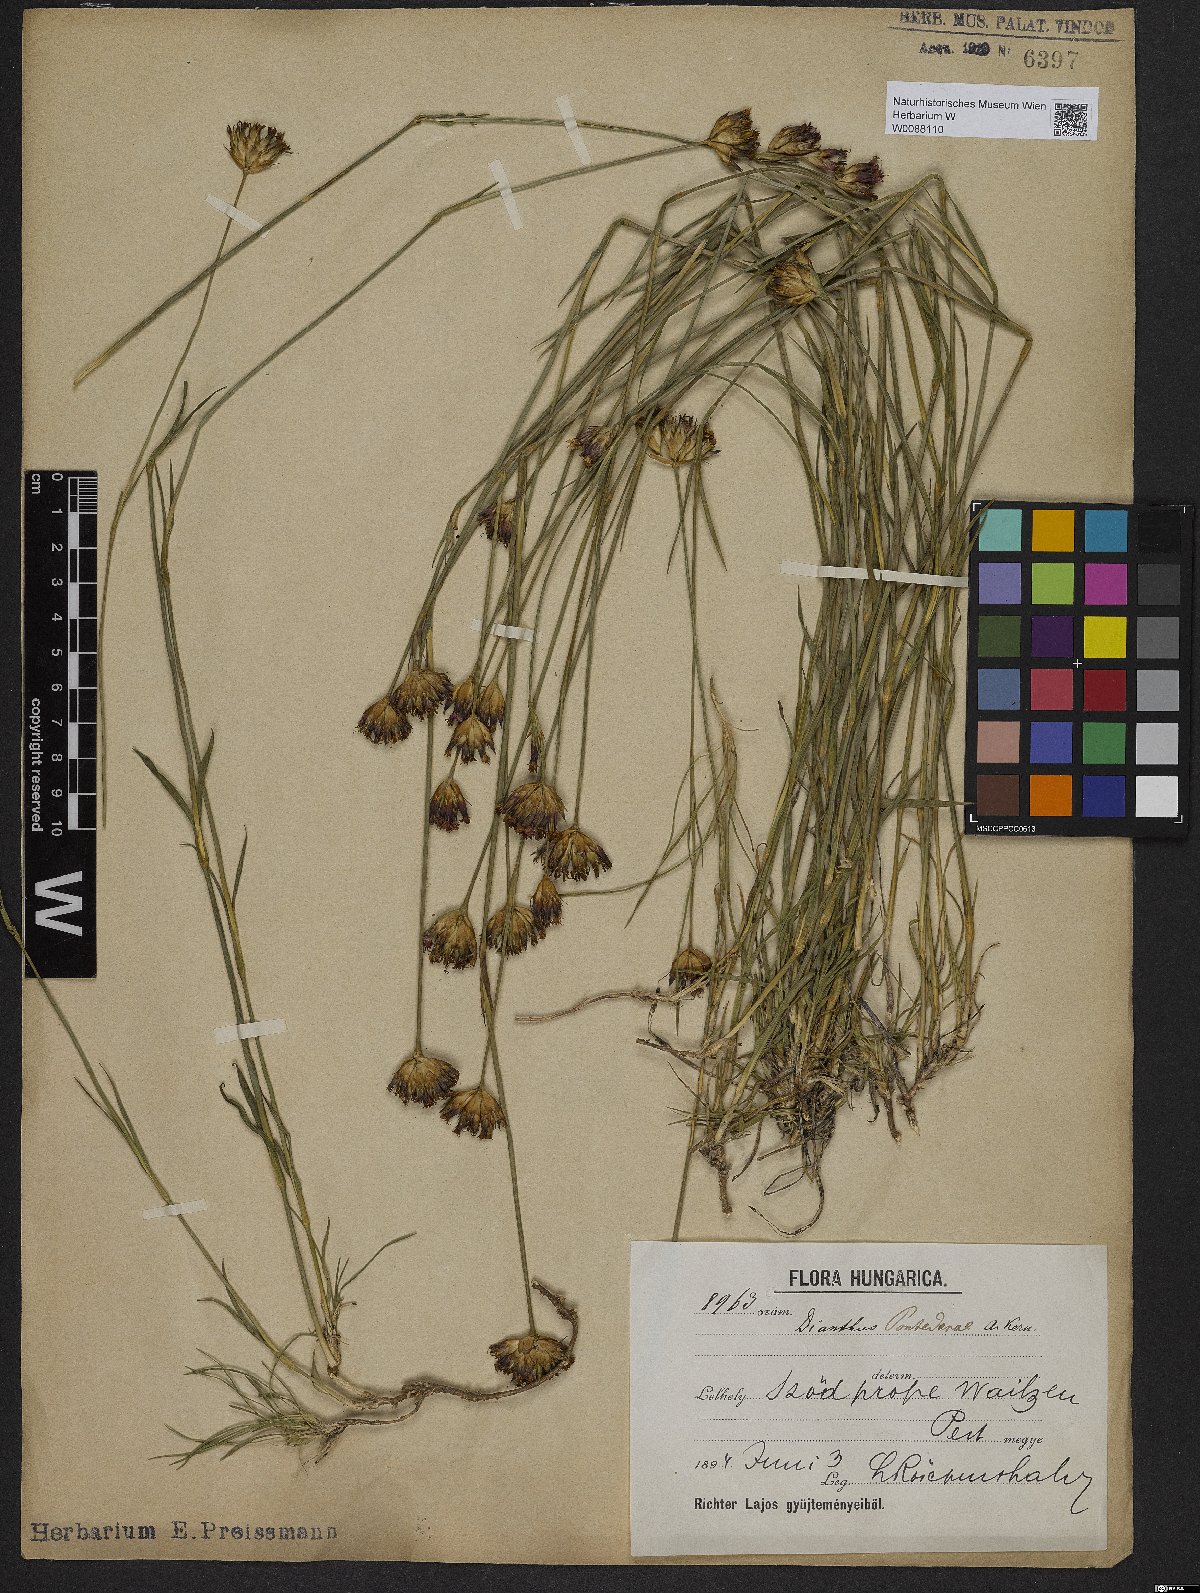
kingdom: Plantae
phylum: Tracheophyta
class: Magnoliopsida
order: Caryophyllales
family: Caryophyllaceae
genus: Dianthus
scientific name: Dianthus pontederae
